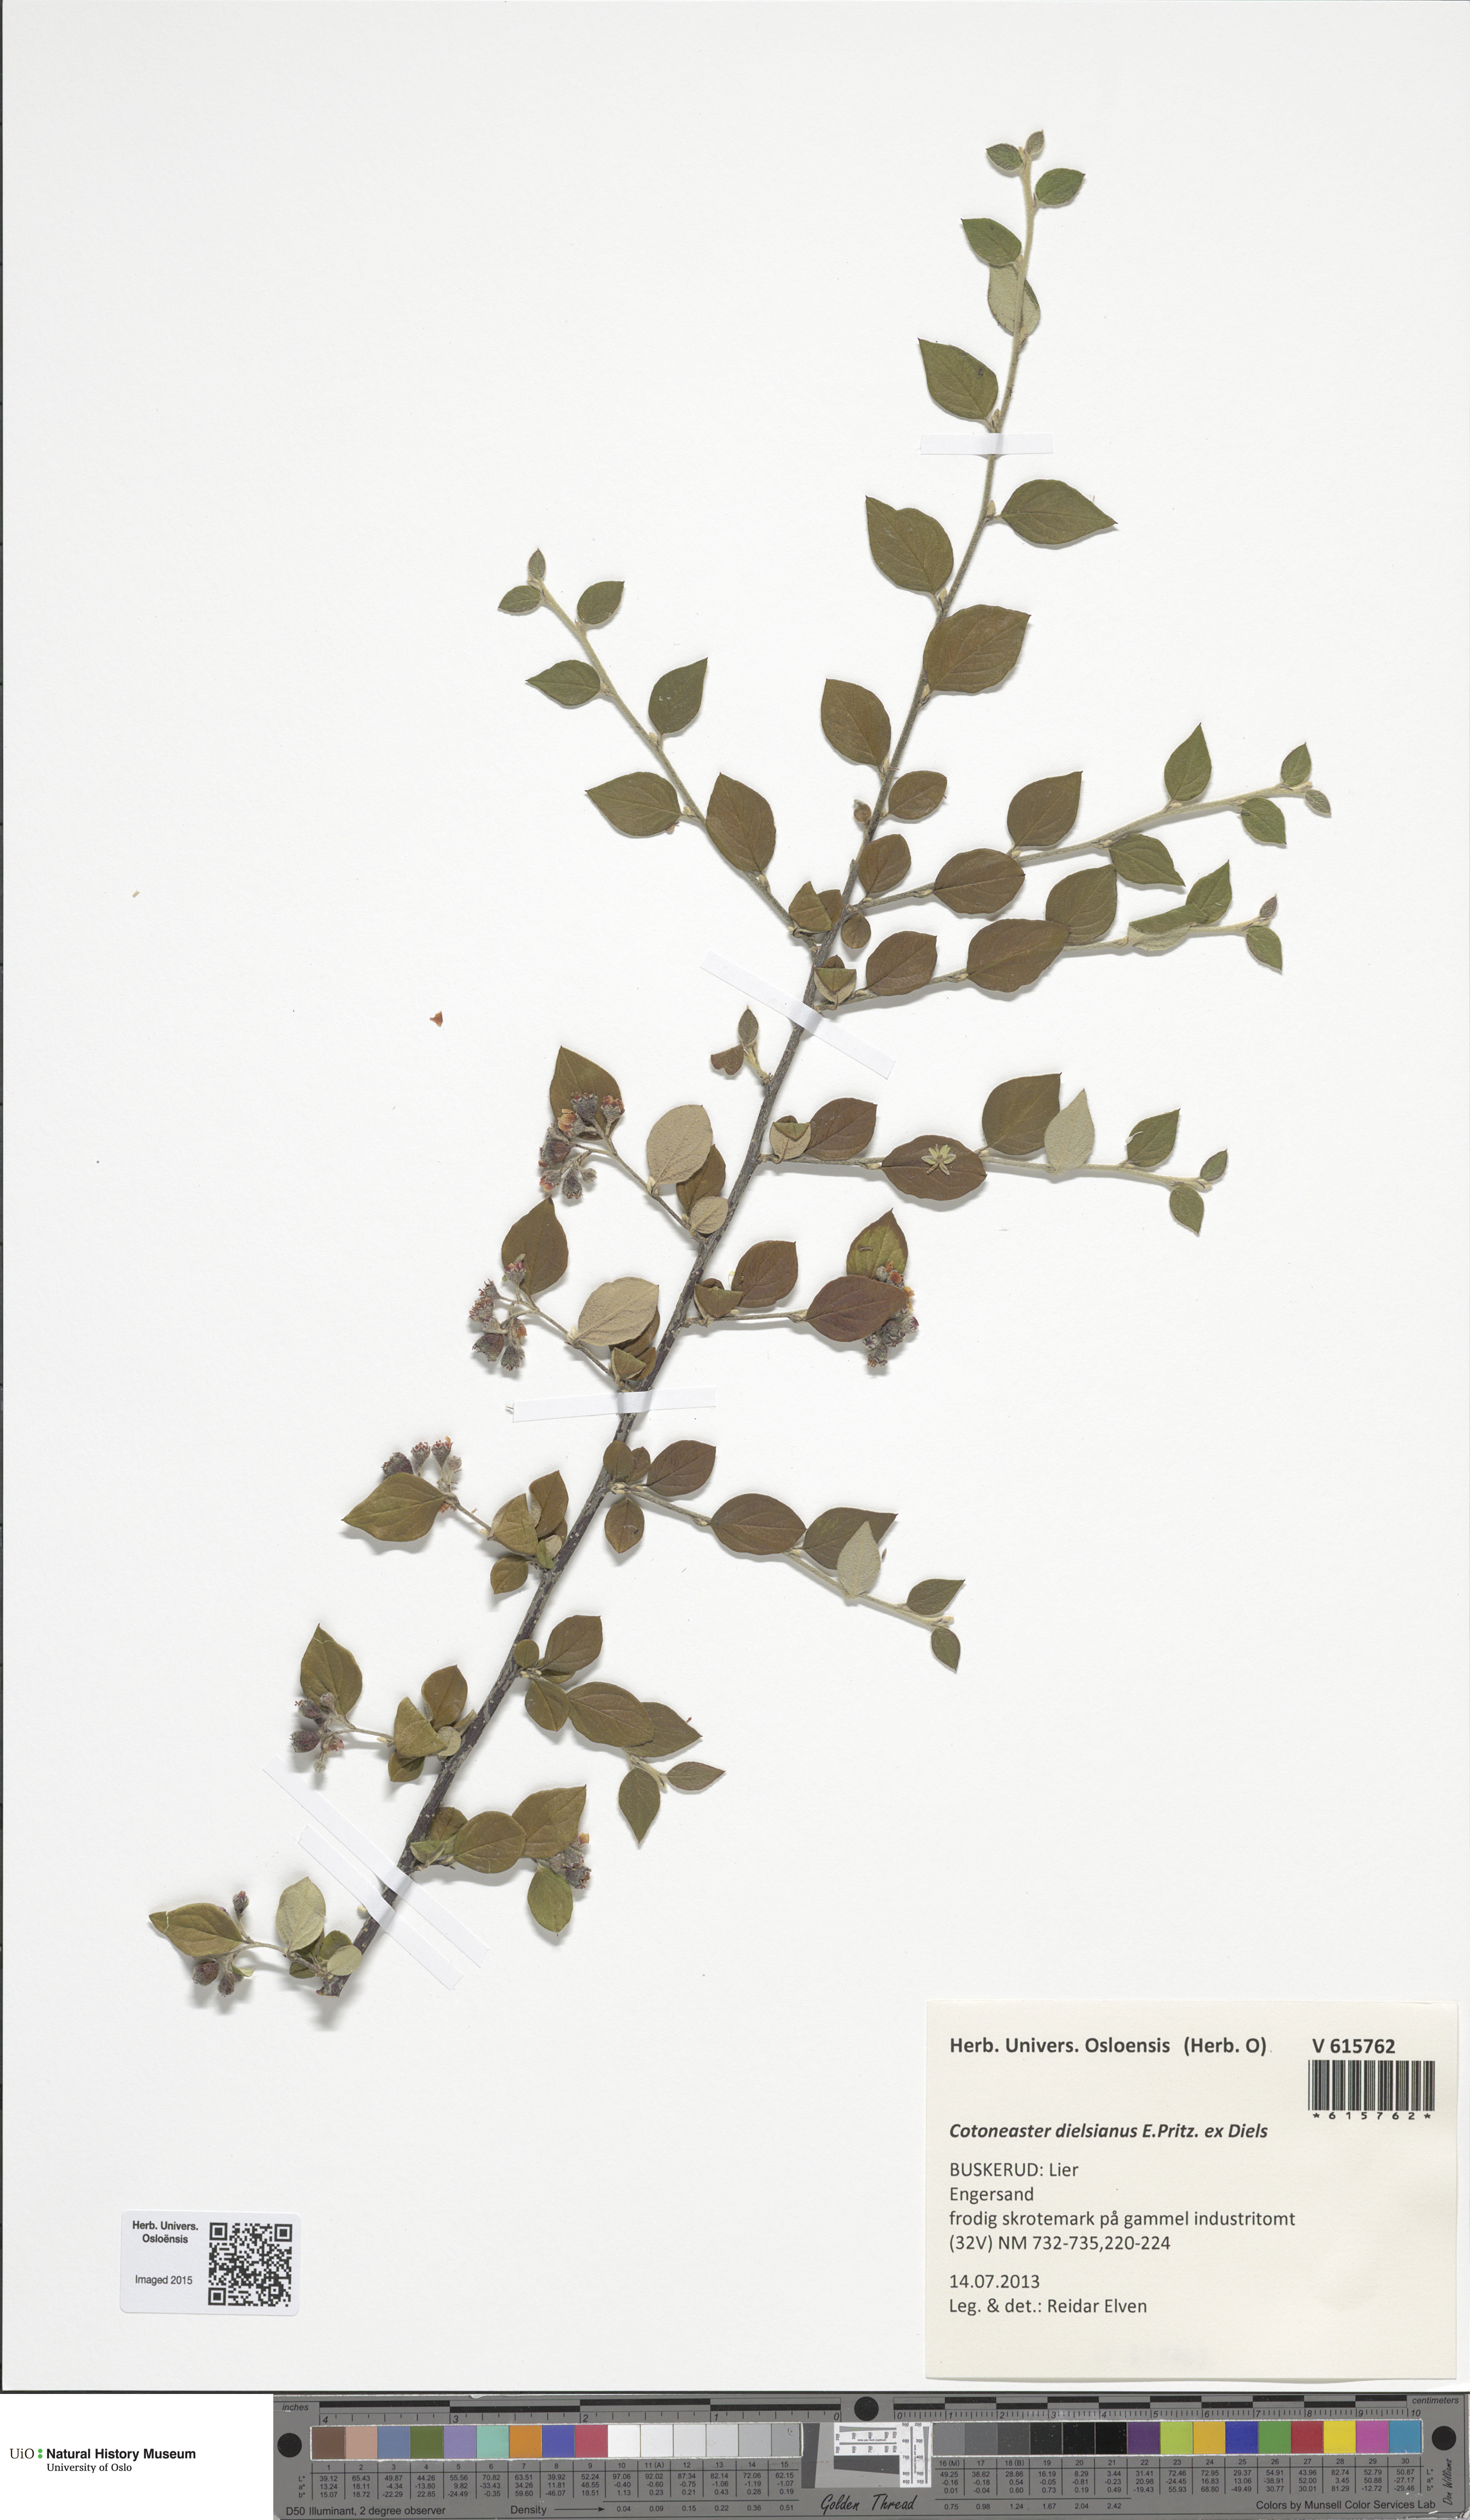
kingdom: Plantae
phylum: Tracheophyta
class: Magnoliopsida
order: Rosales
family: Rosaceae
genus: Cotoneaster
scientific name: Cotoneaster dielsianus
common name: Diels's cotoneaster
